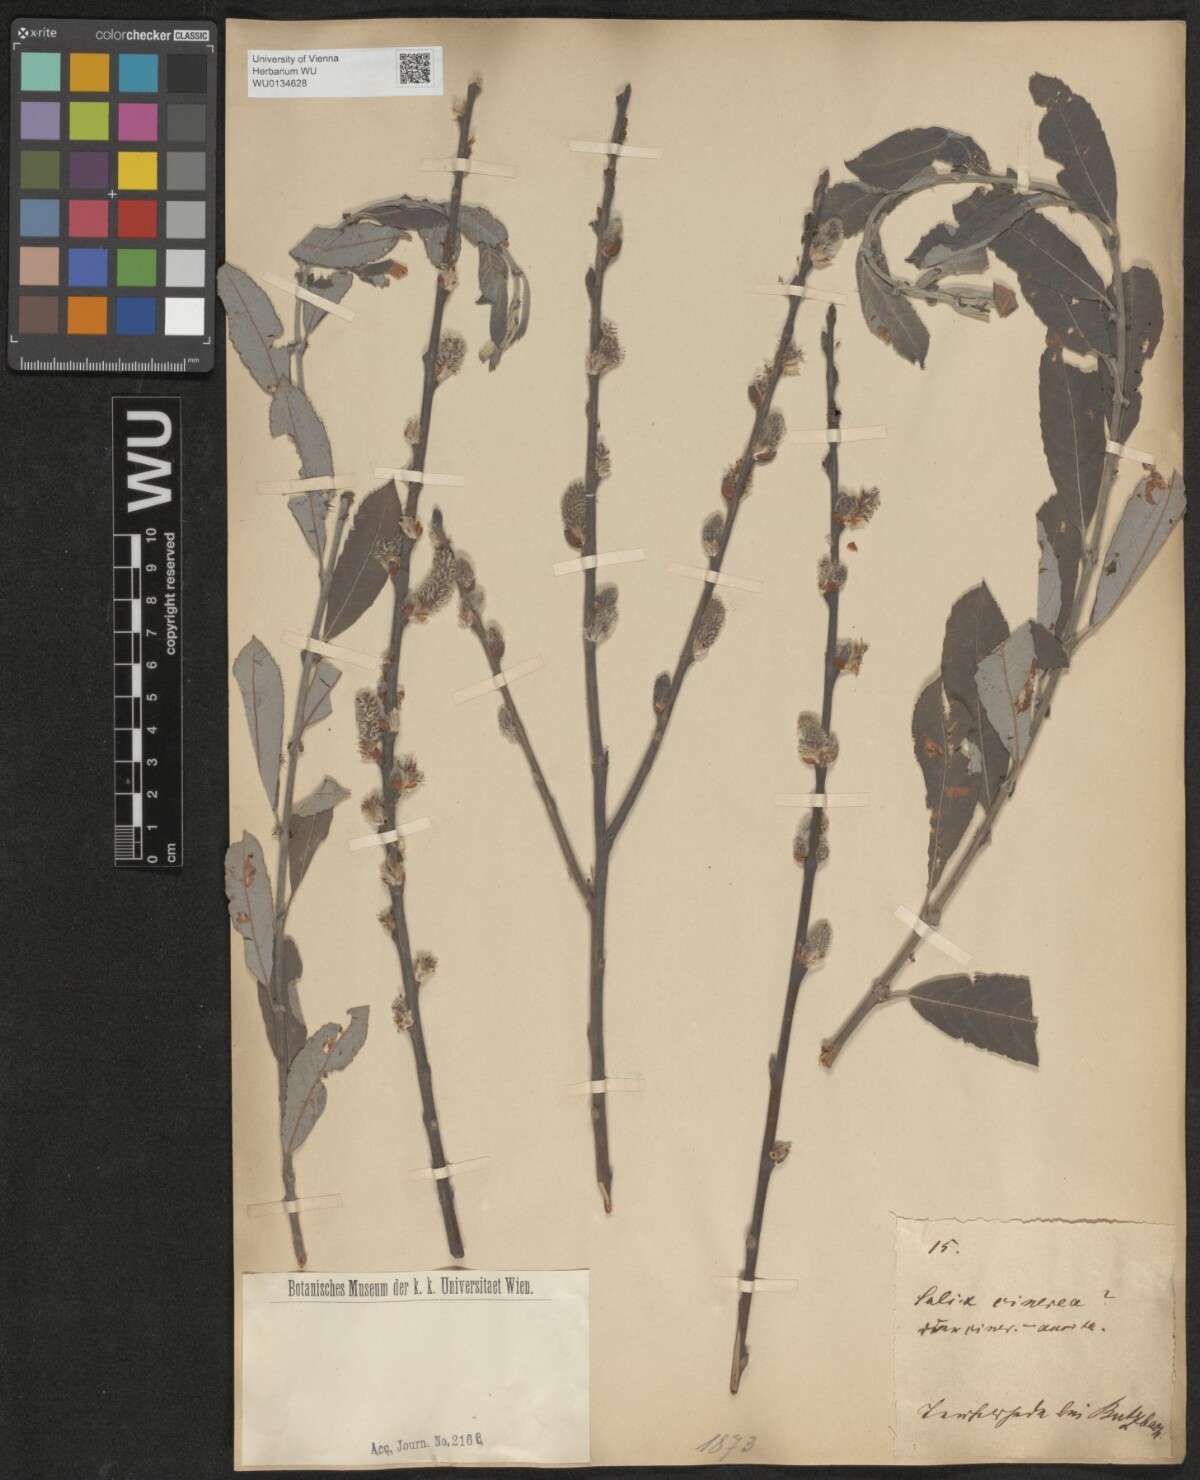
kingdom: Plantae
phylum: Tracheophyta
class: Magnoliopsida
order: Malpighiales
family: Salicaceae
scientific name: Salicaceae
